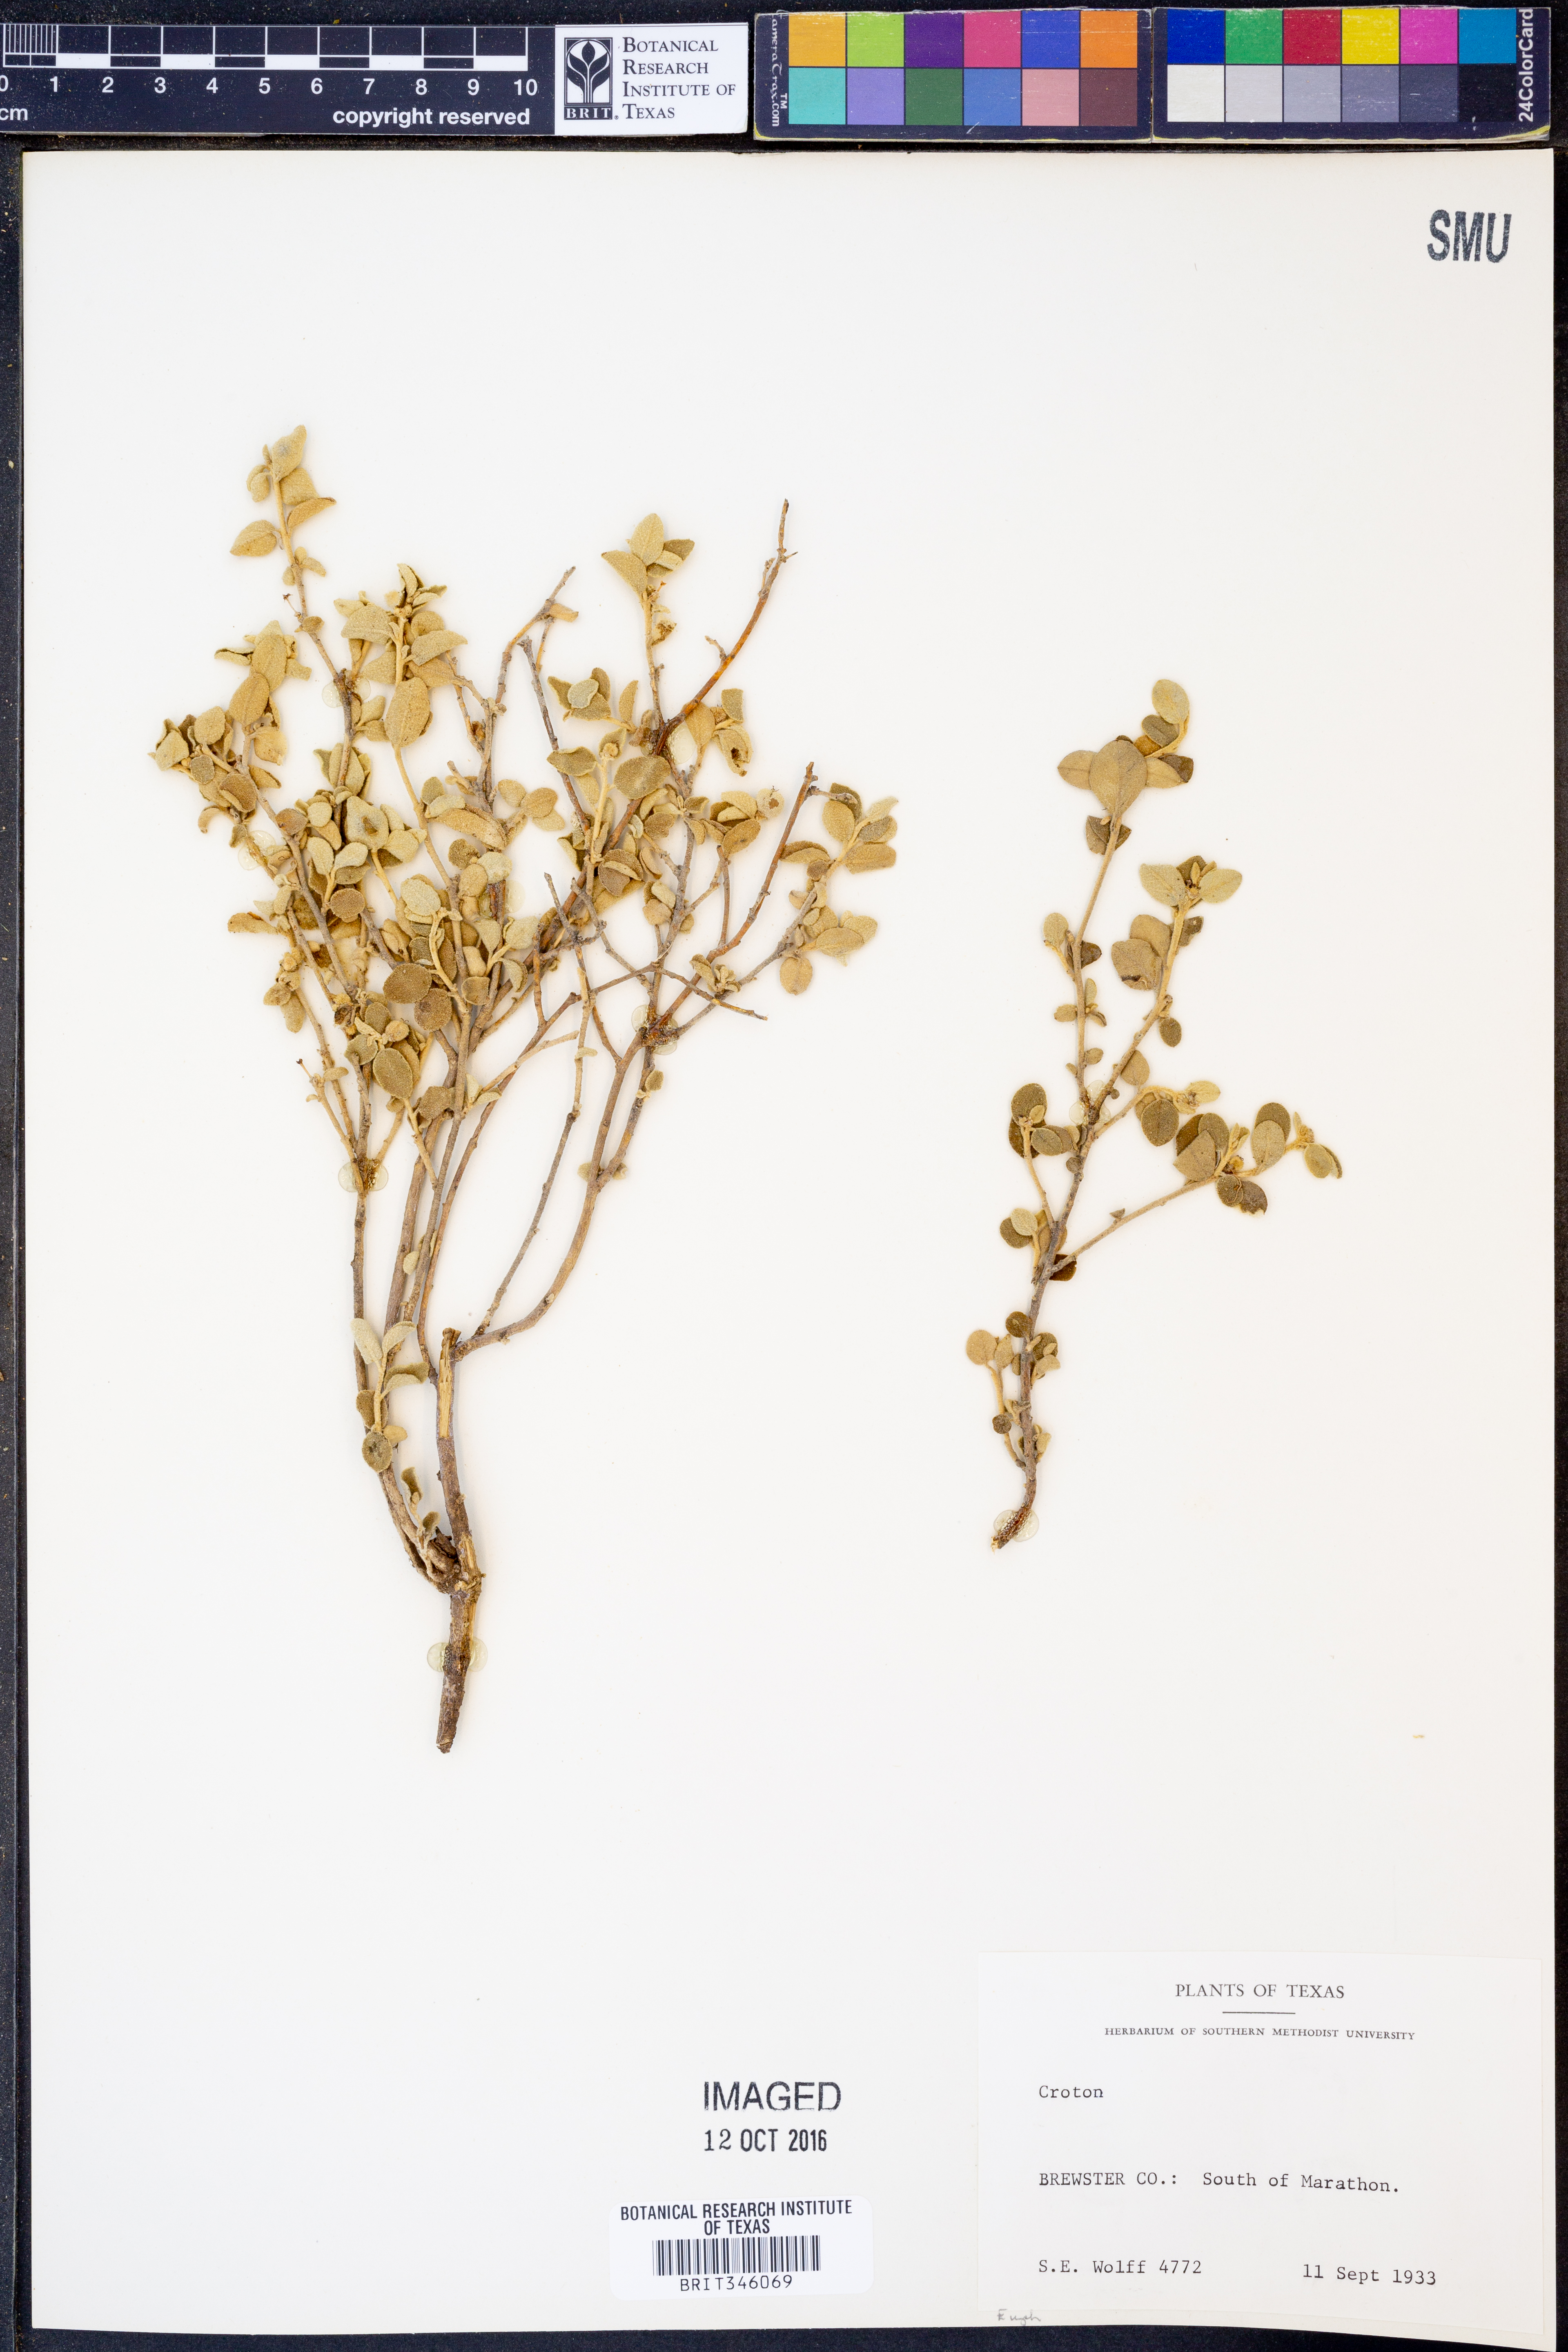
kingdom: Plantae
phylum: Tracheophyta
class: Magnoliopsida
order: Malpighiales
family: Euphorbiaceae
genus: Croton
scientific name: Croton
